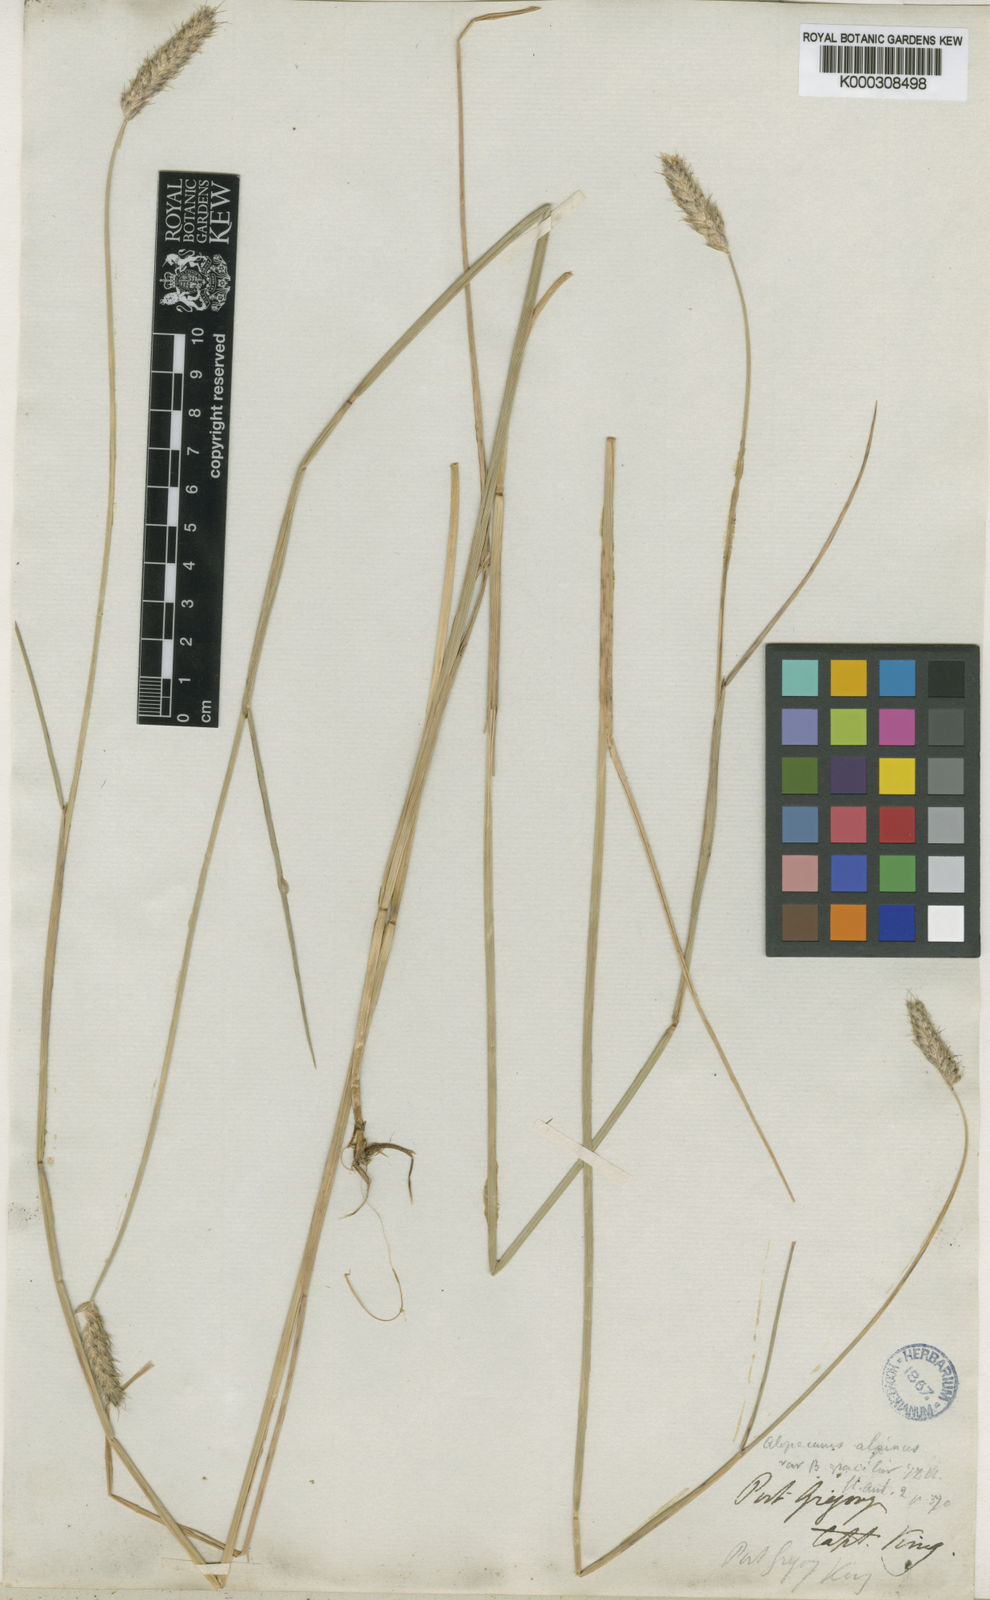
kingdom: Plantae
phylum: Tracheophyta
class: Liliopsida
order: Poales
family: Poaceae
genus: Alopecurus
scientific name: Alopecurus magellanicus
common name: Alpine foxtail
